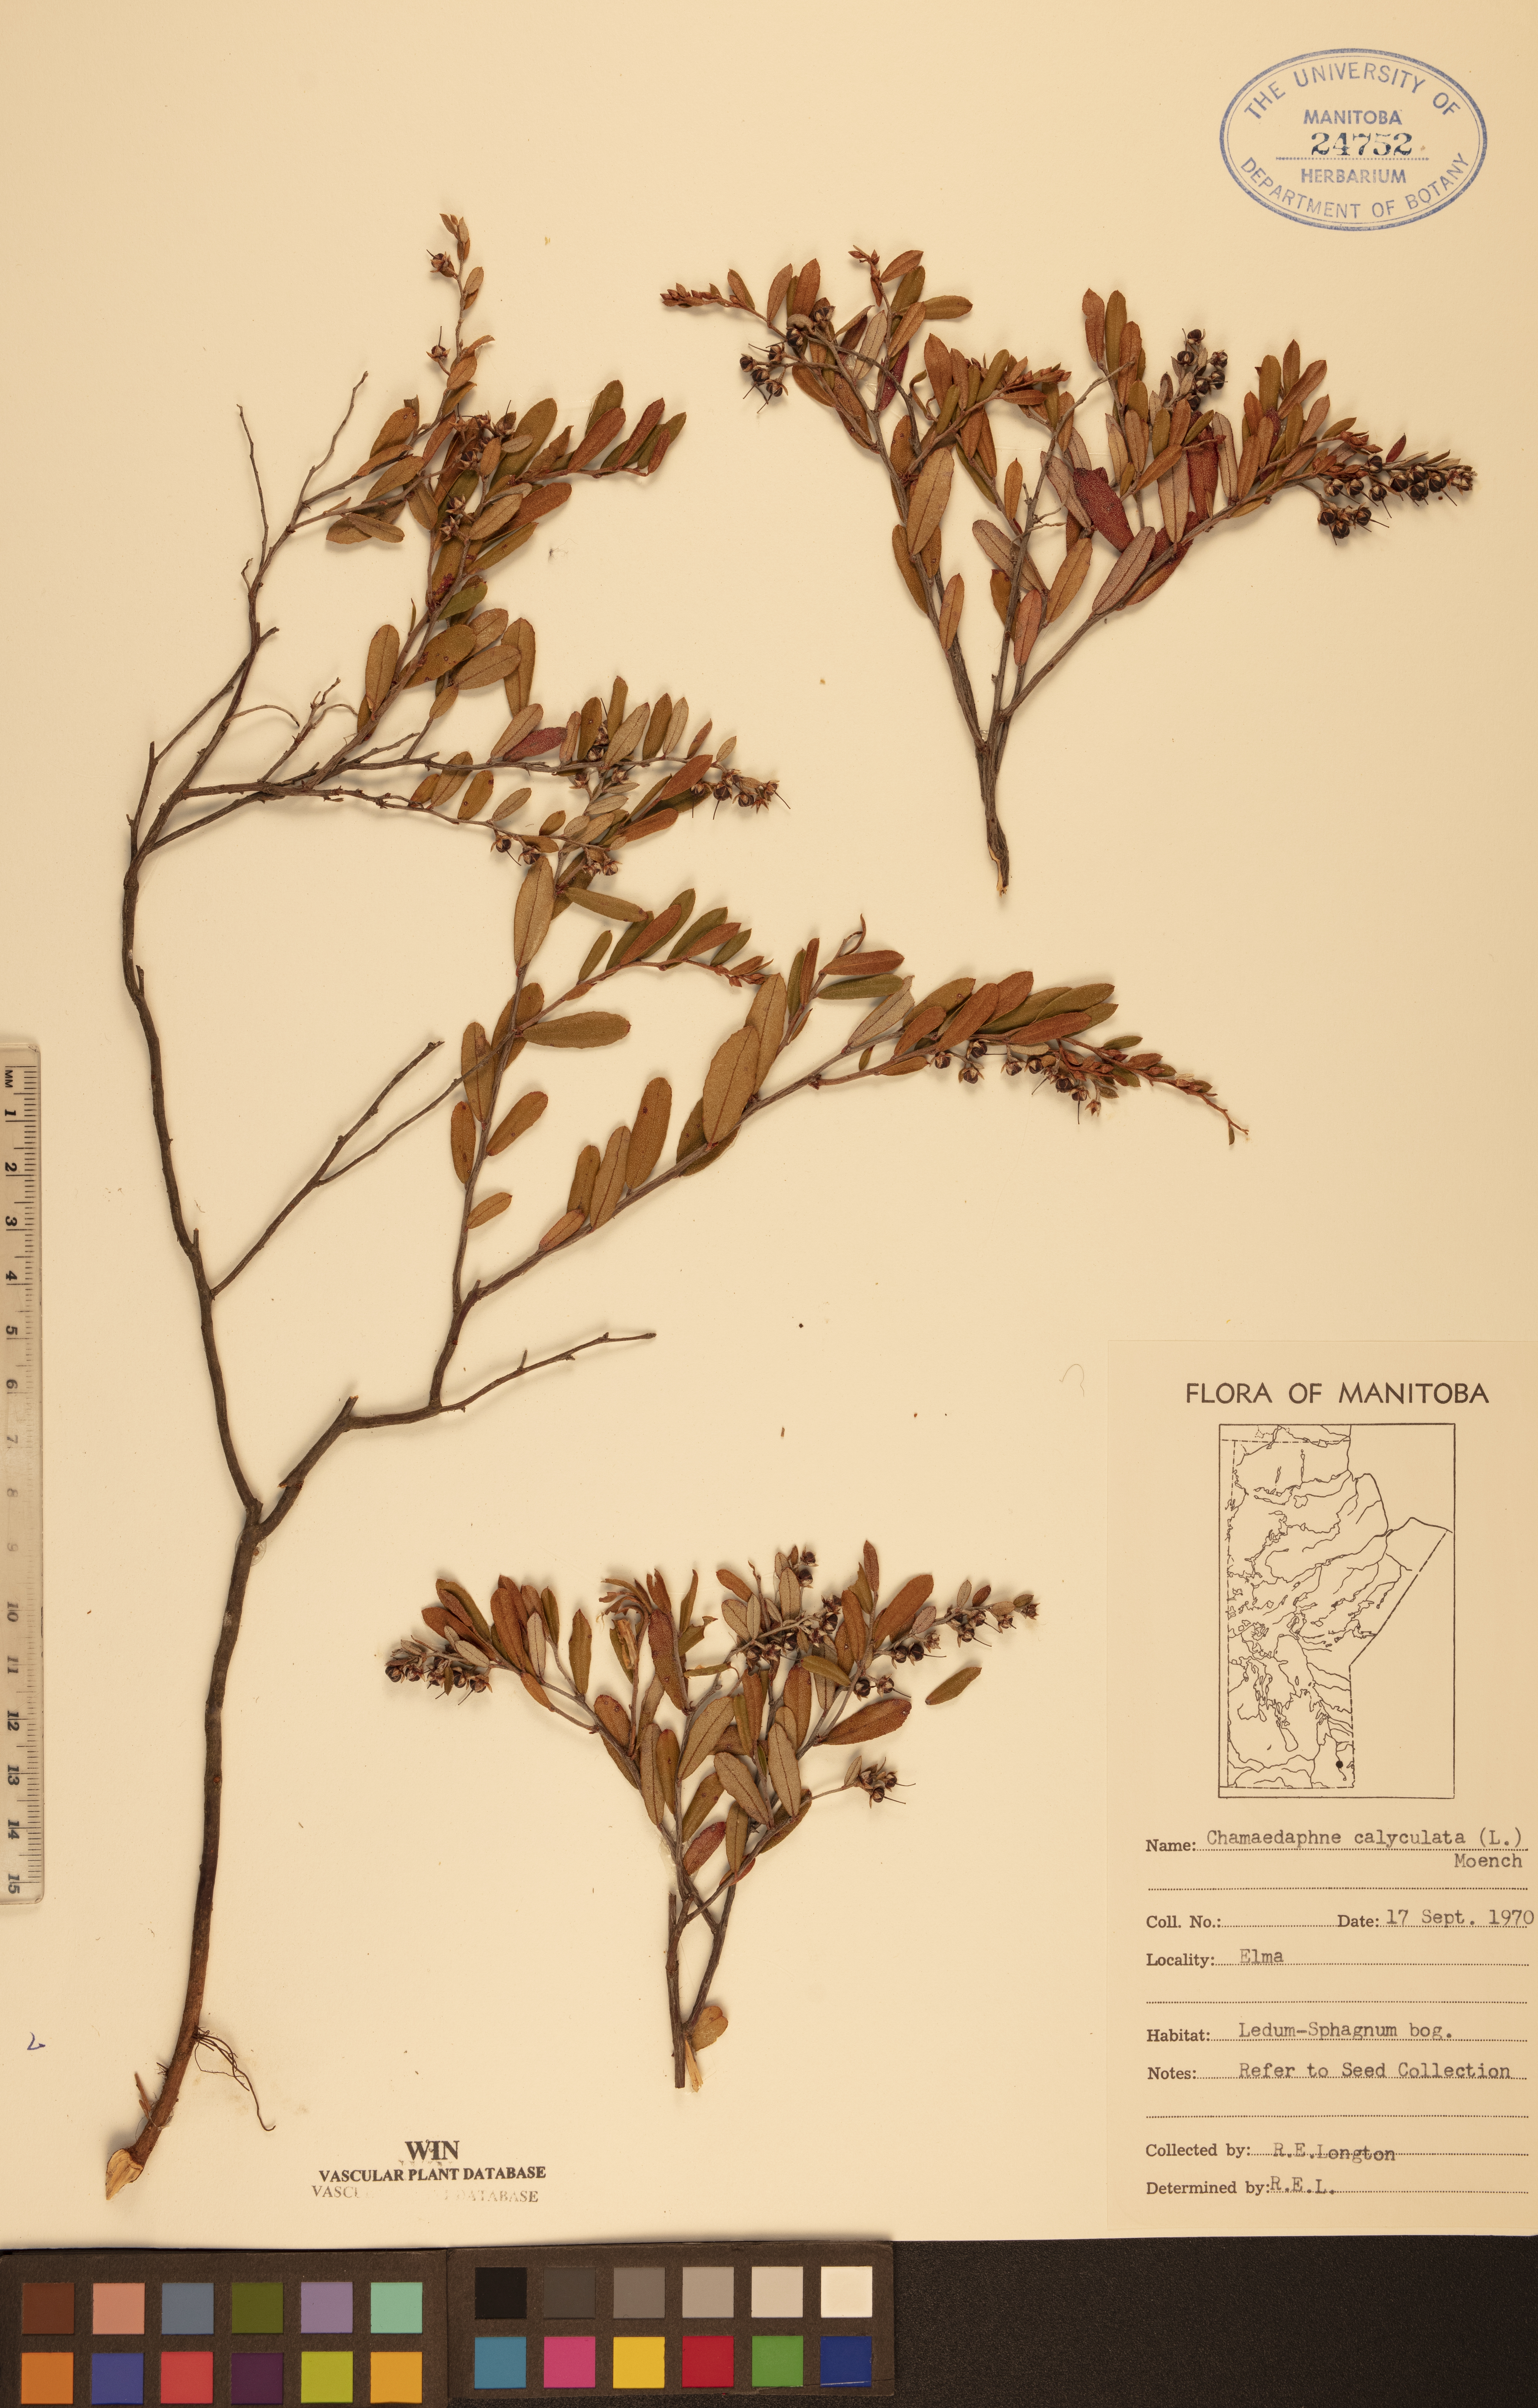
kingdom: Plantae
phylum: Tracheophyta
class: Magnoliopsida
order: Ericales
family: Ericaceae
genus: Chamaedaphne
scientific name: Chamaedaphne calyculata
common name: Leatherleaf
